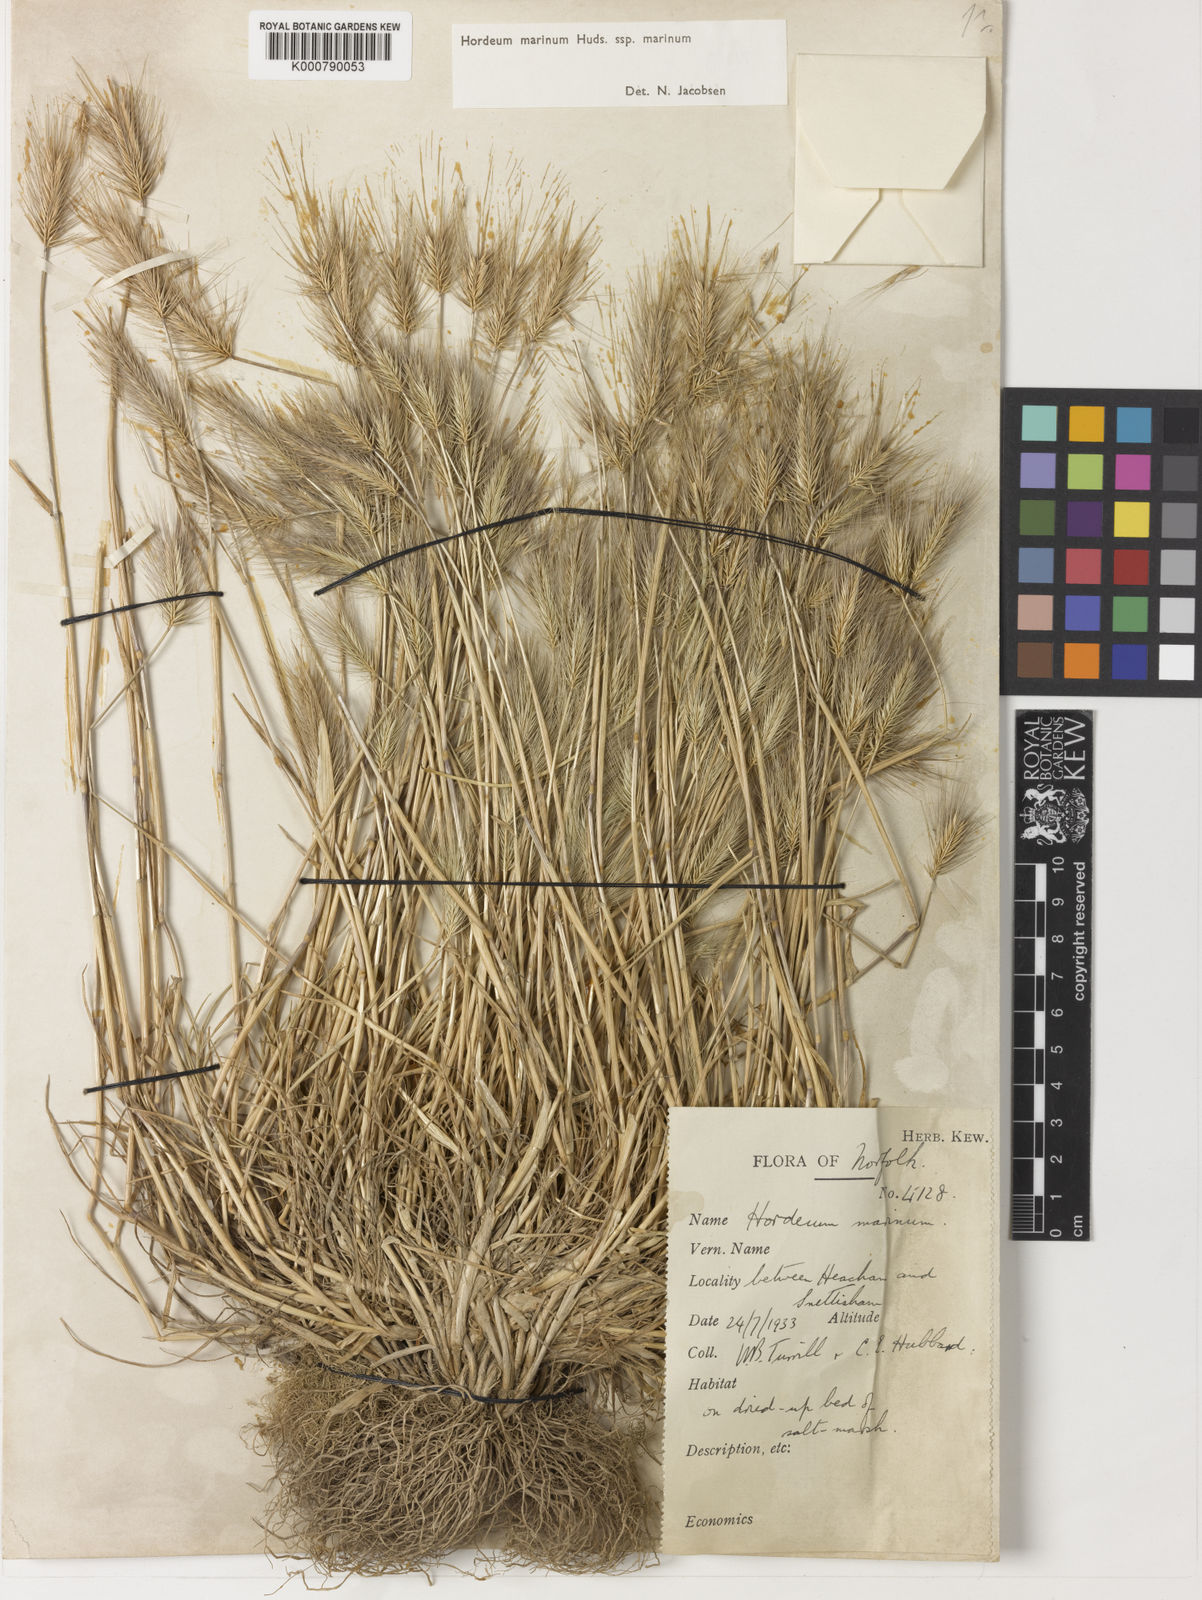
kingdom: Plantae
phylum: Tracheophyta
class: Liliopsida
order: Poales
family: Poaceae
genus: Hordeum
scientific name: Hordeum marinum
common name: Sea barley
